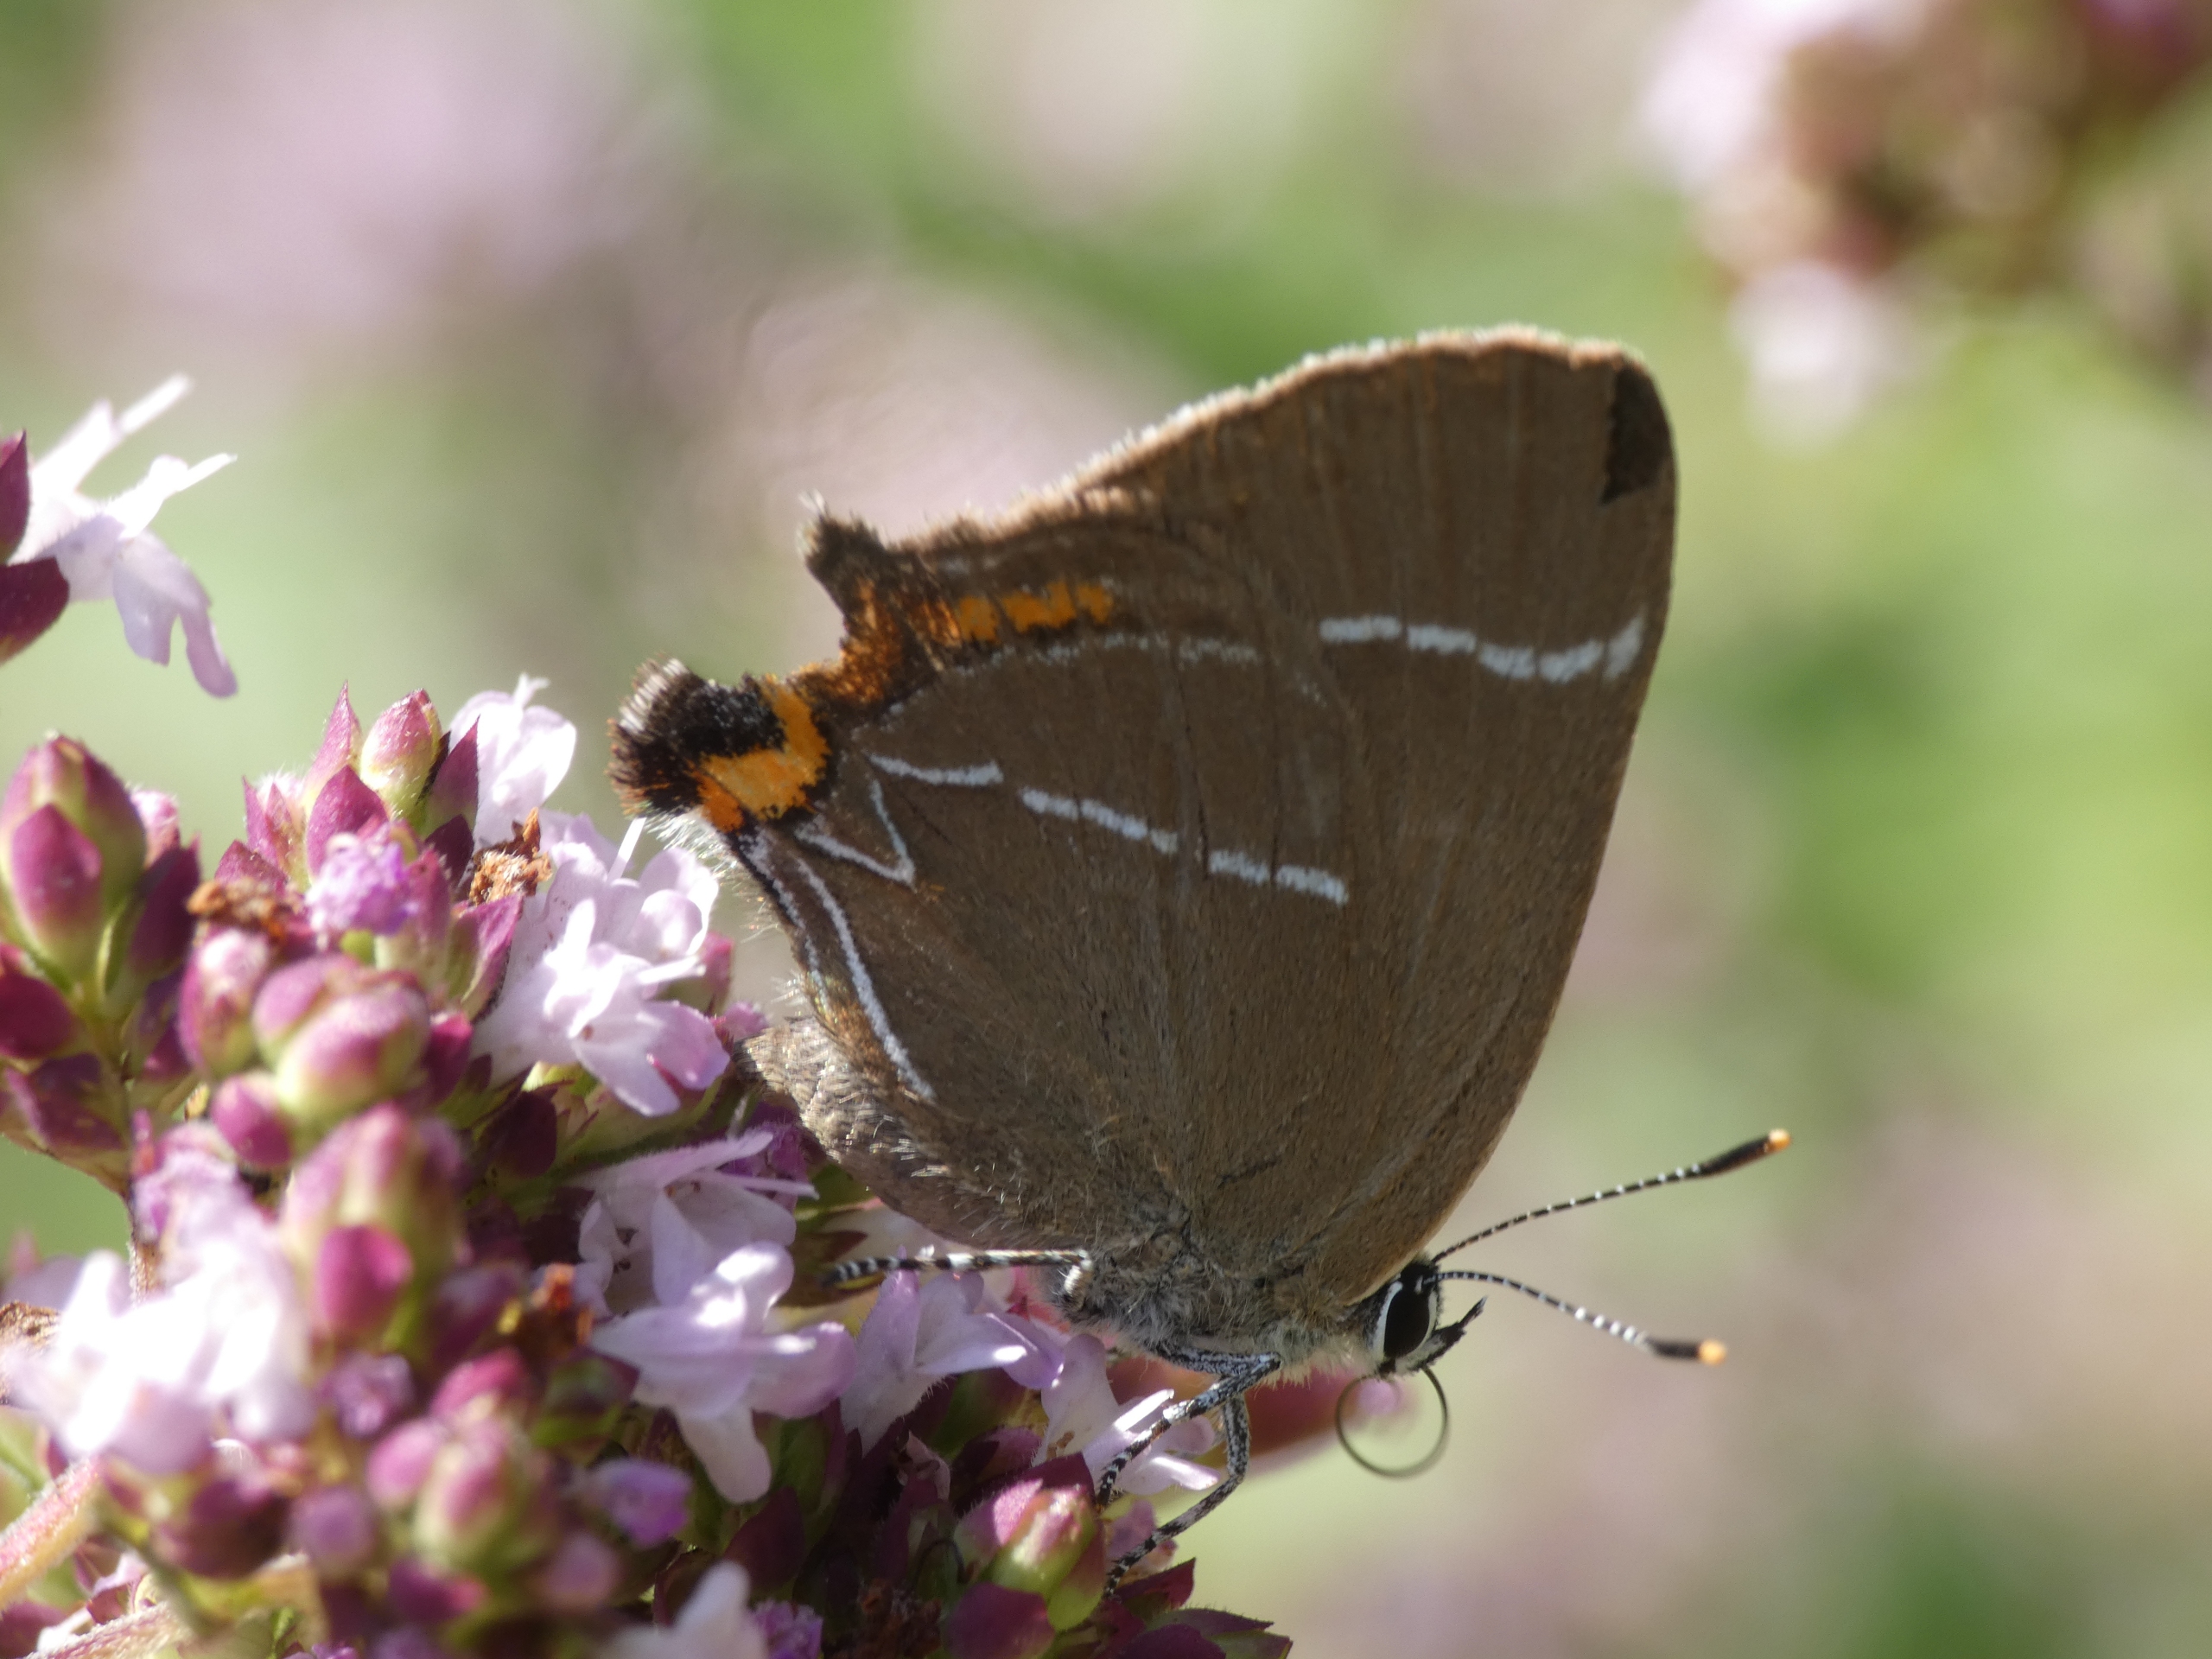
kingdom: Animalia
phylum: Arthropoda
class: Insecta
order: Lepidoptera
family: Lycaenidae
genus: Satyrium
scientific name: Satyrium w-album
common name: Det hvide W
